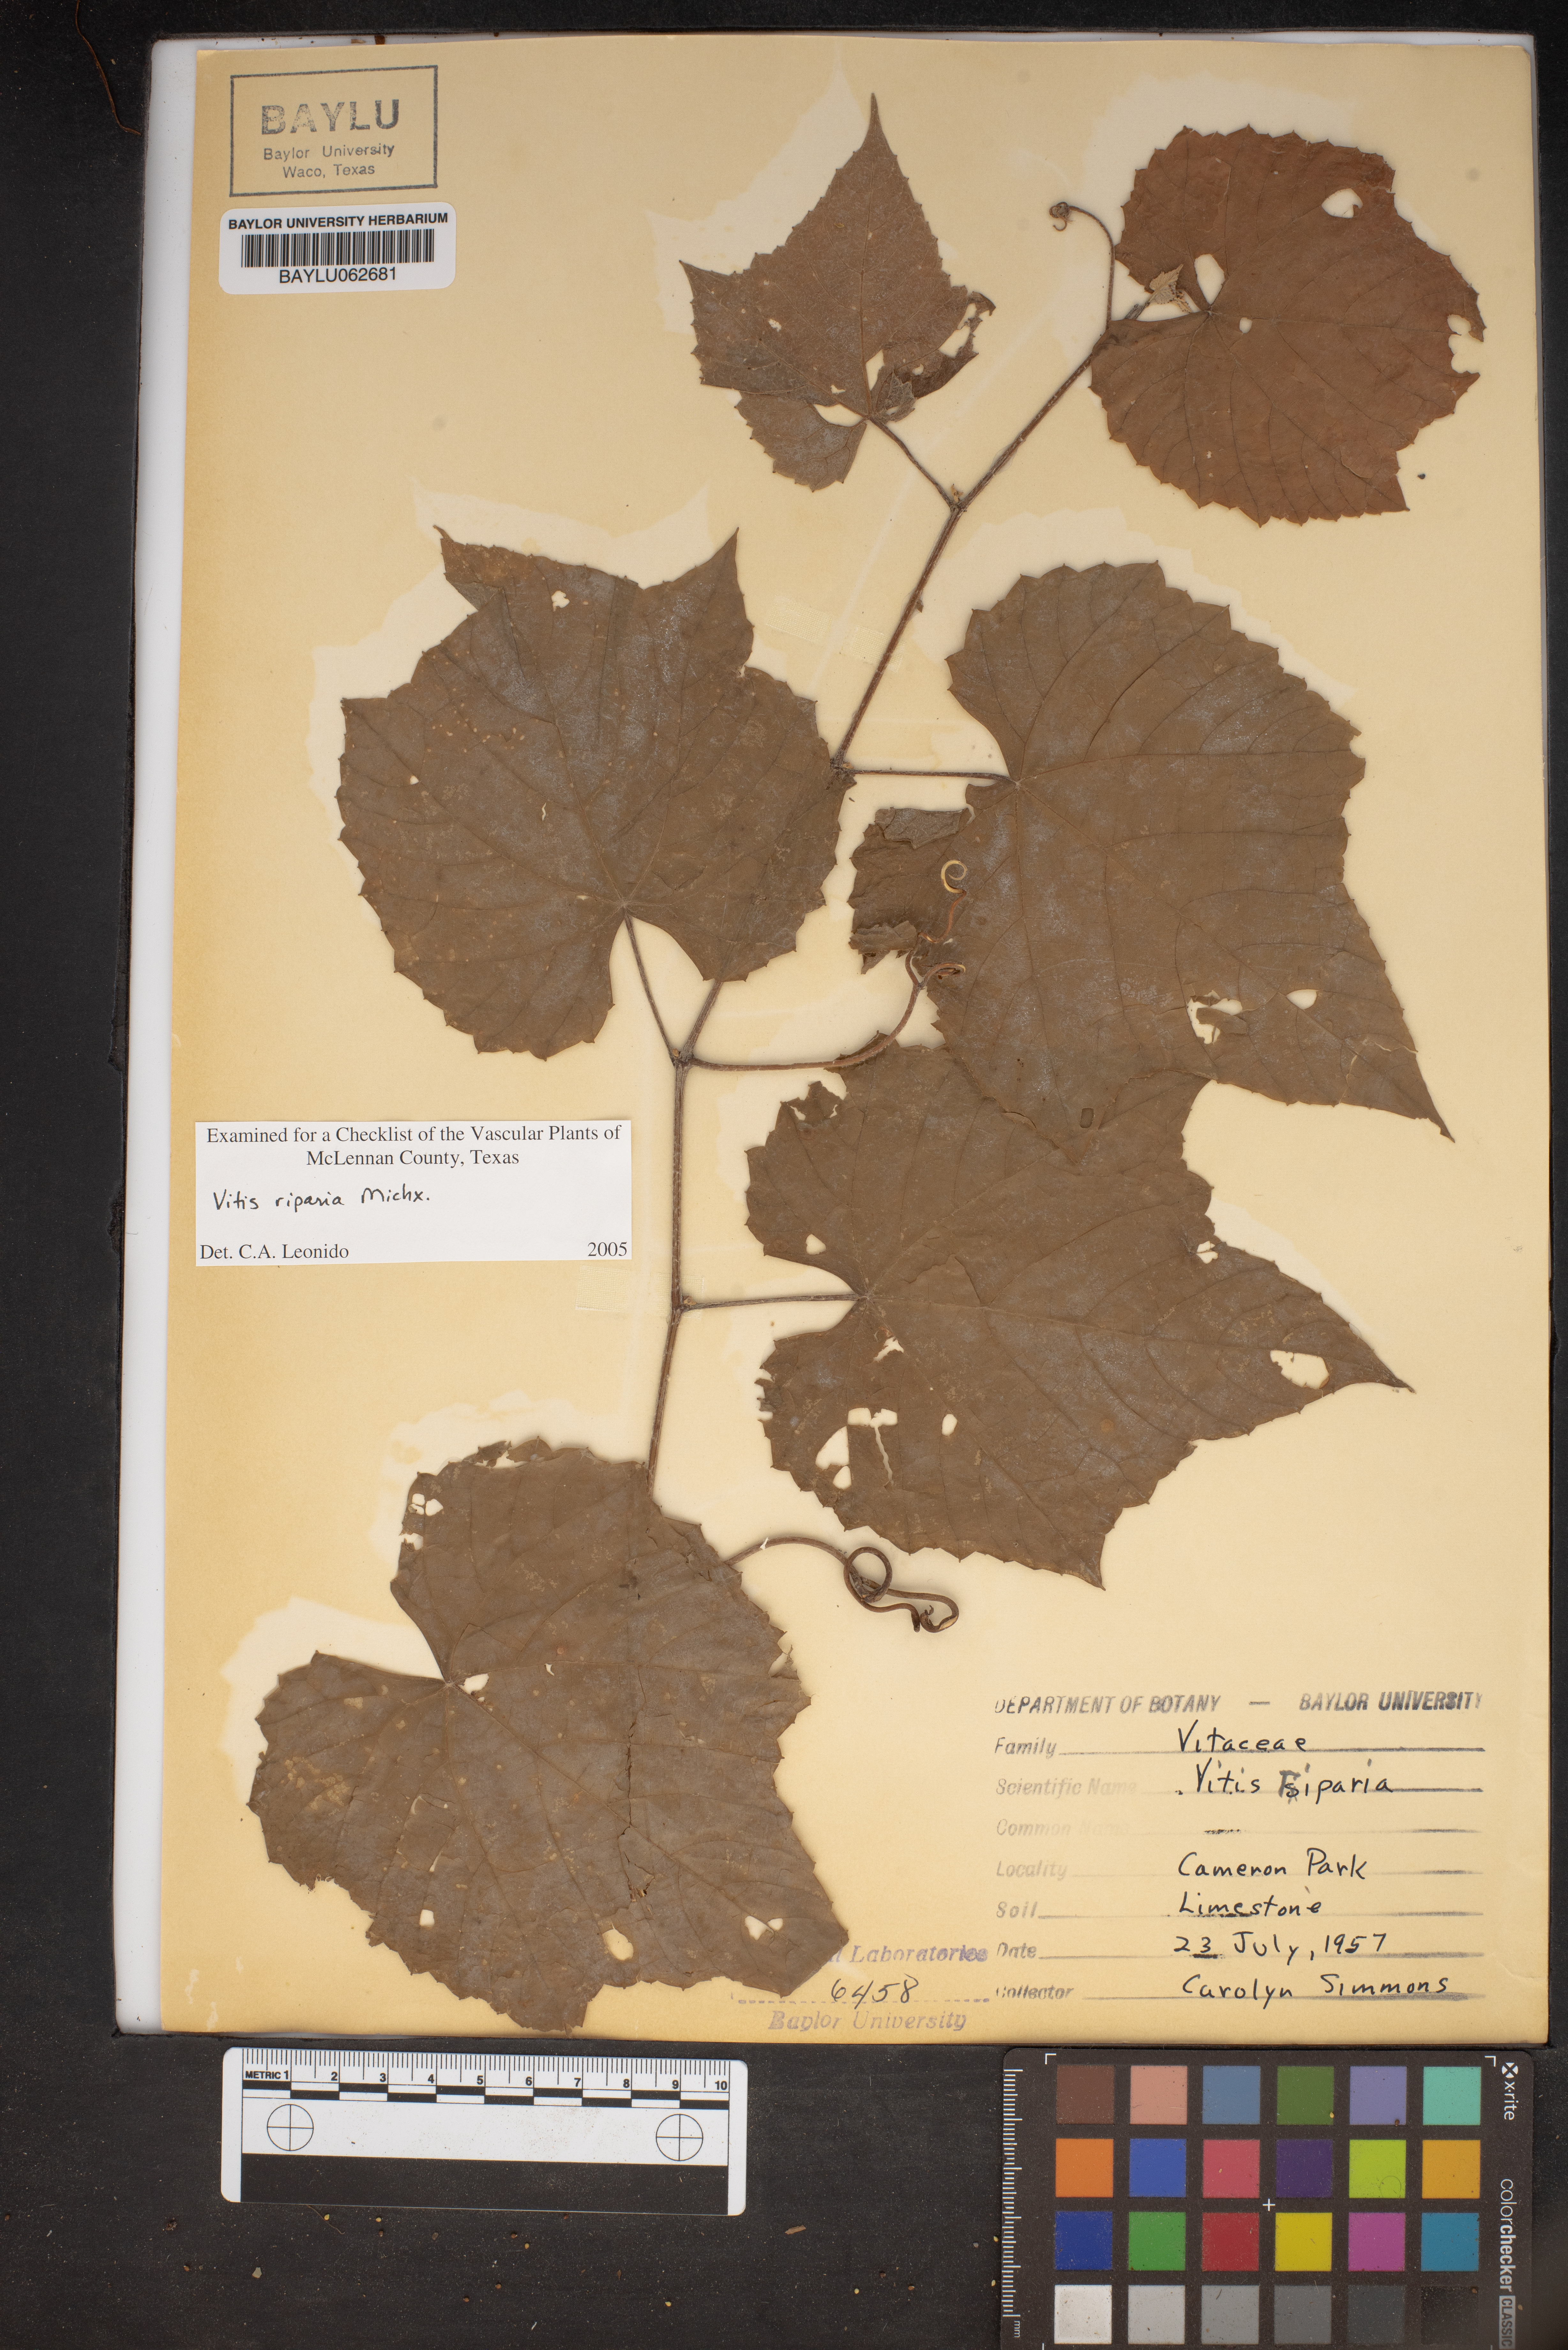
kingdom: Plantae
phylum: Tracheophyta
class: Magnoliopsida
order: Vitales
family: Vitaceae
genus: Vitis
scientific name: Vitis riparia
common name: Frost grape
